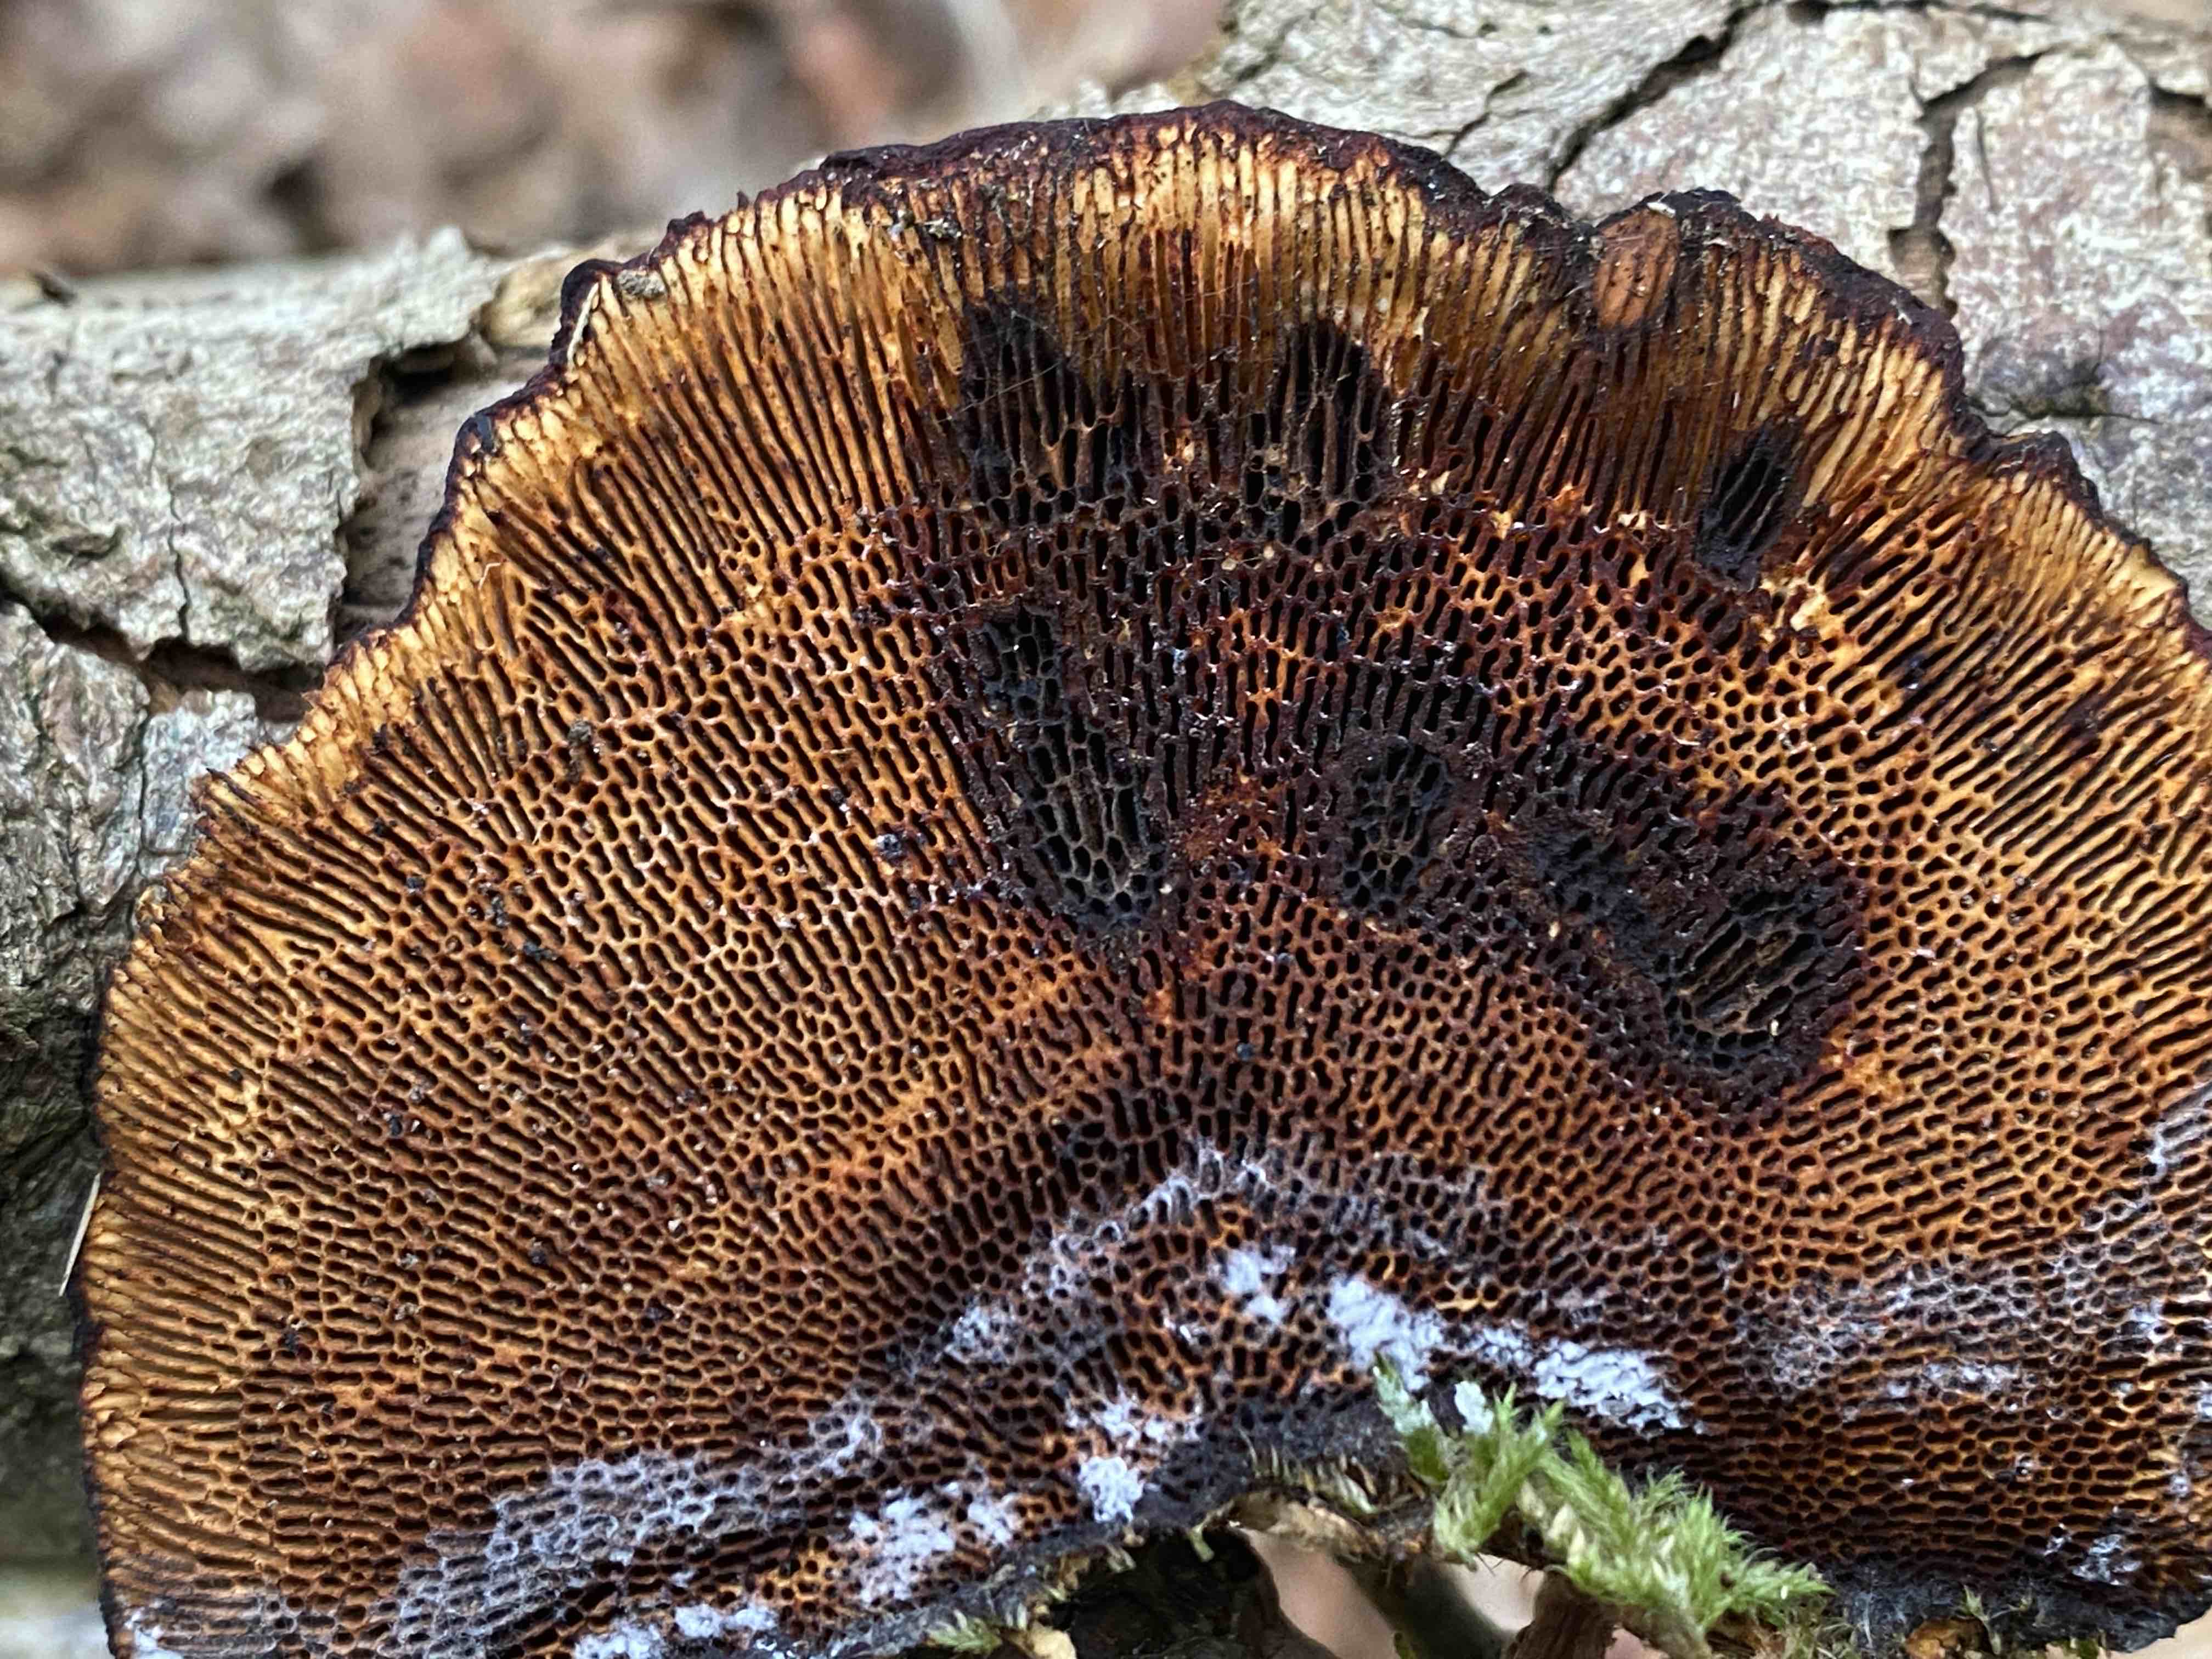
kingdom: Fungi
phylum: Basidiomycota
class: Agaricomycetes
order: Polyporales
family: Polyporaceae
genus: Daedaleopsis
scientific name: Daedaleopsis confragosa
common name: rødmende læderporesvamp
